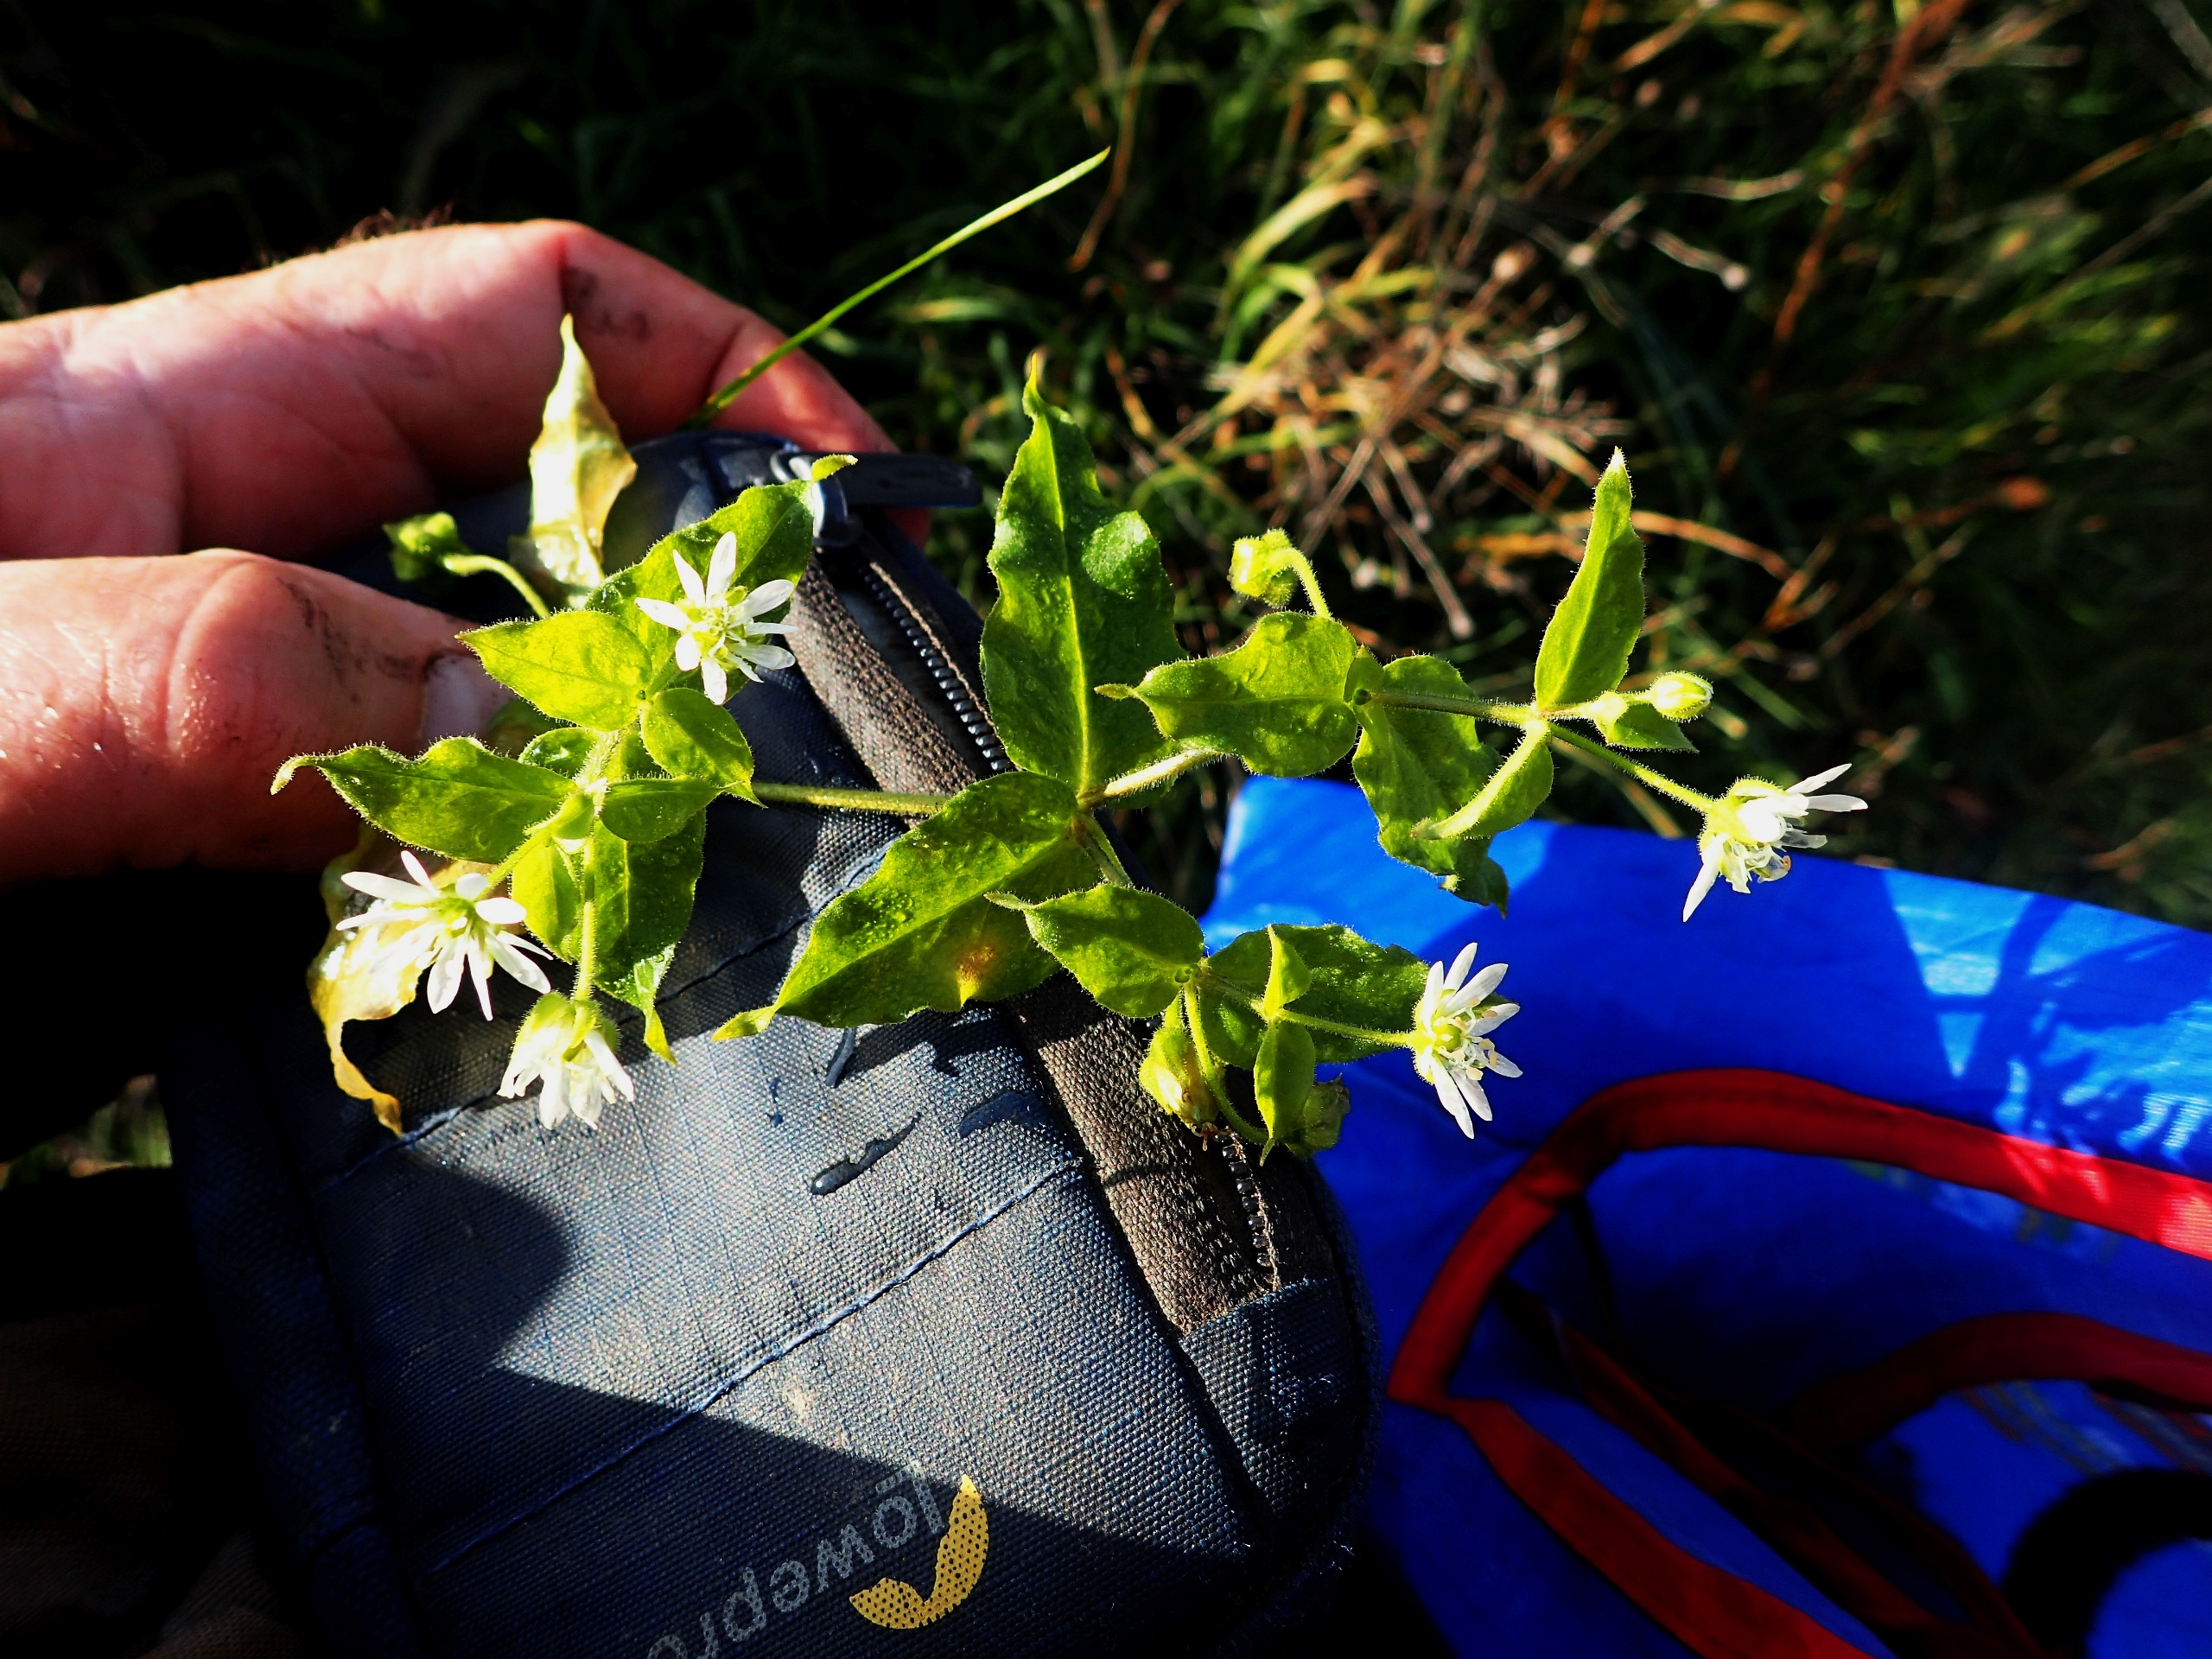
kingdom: Plantae
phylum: Tracheophyta
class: Magnoliopsida
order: Caryophyllales
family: Caryophyllaceae
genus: Stellaria
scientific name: Stellaria aquatica
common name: Kløvkrone
